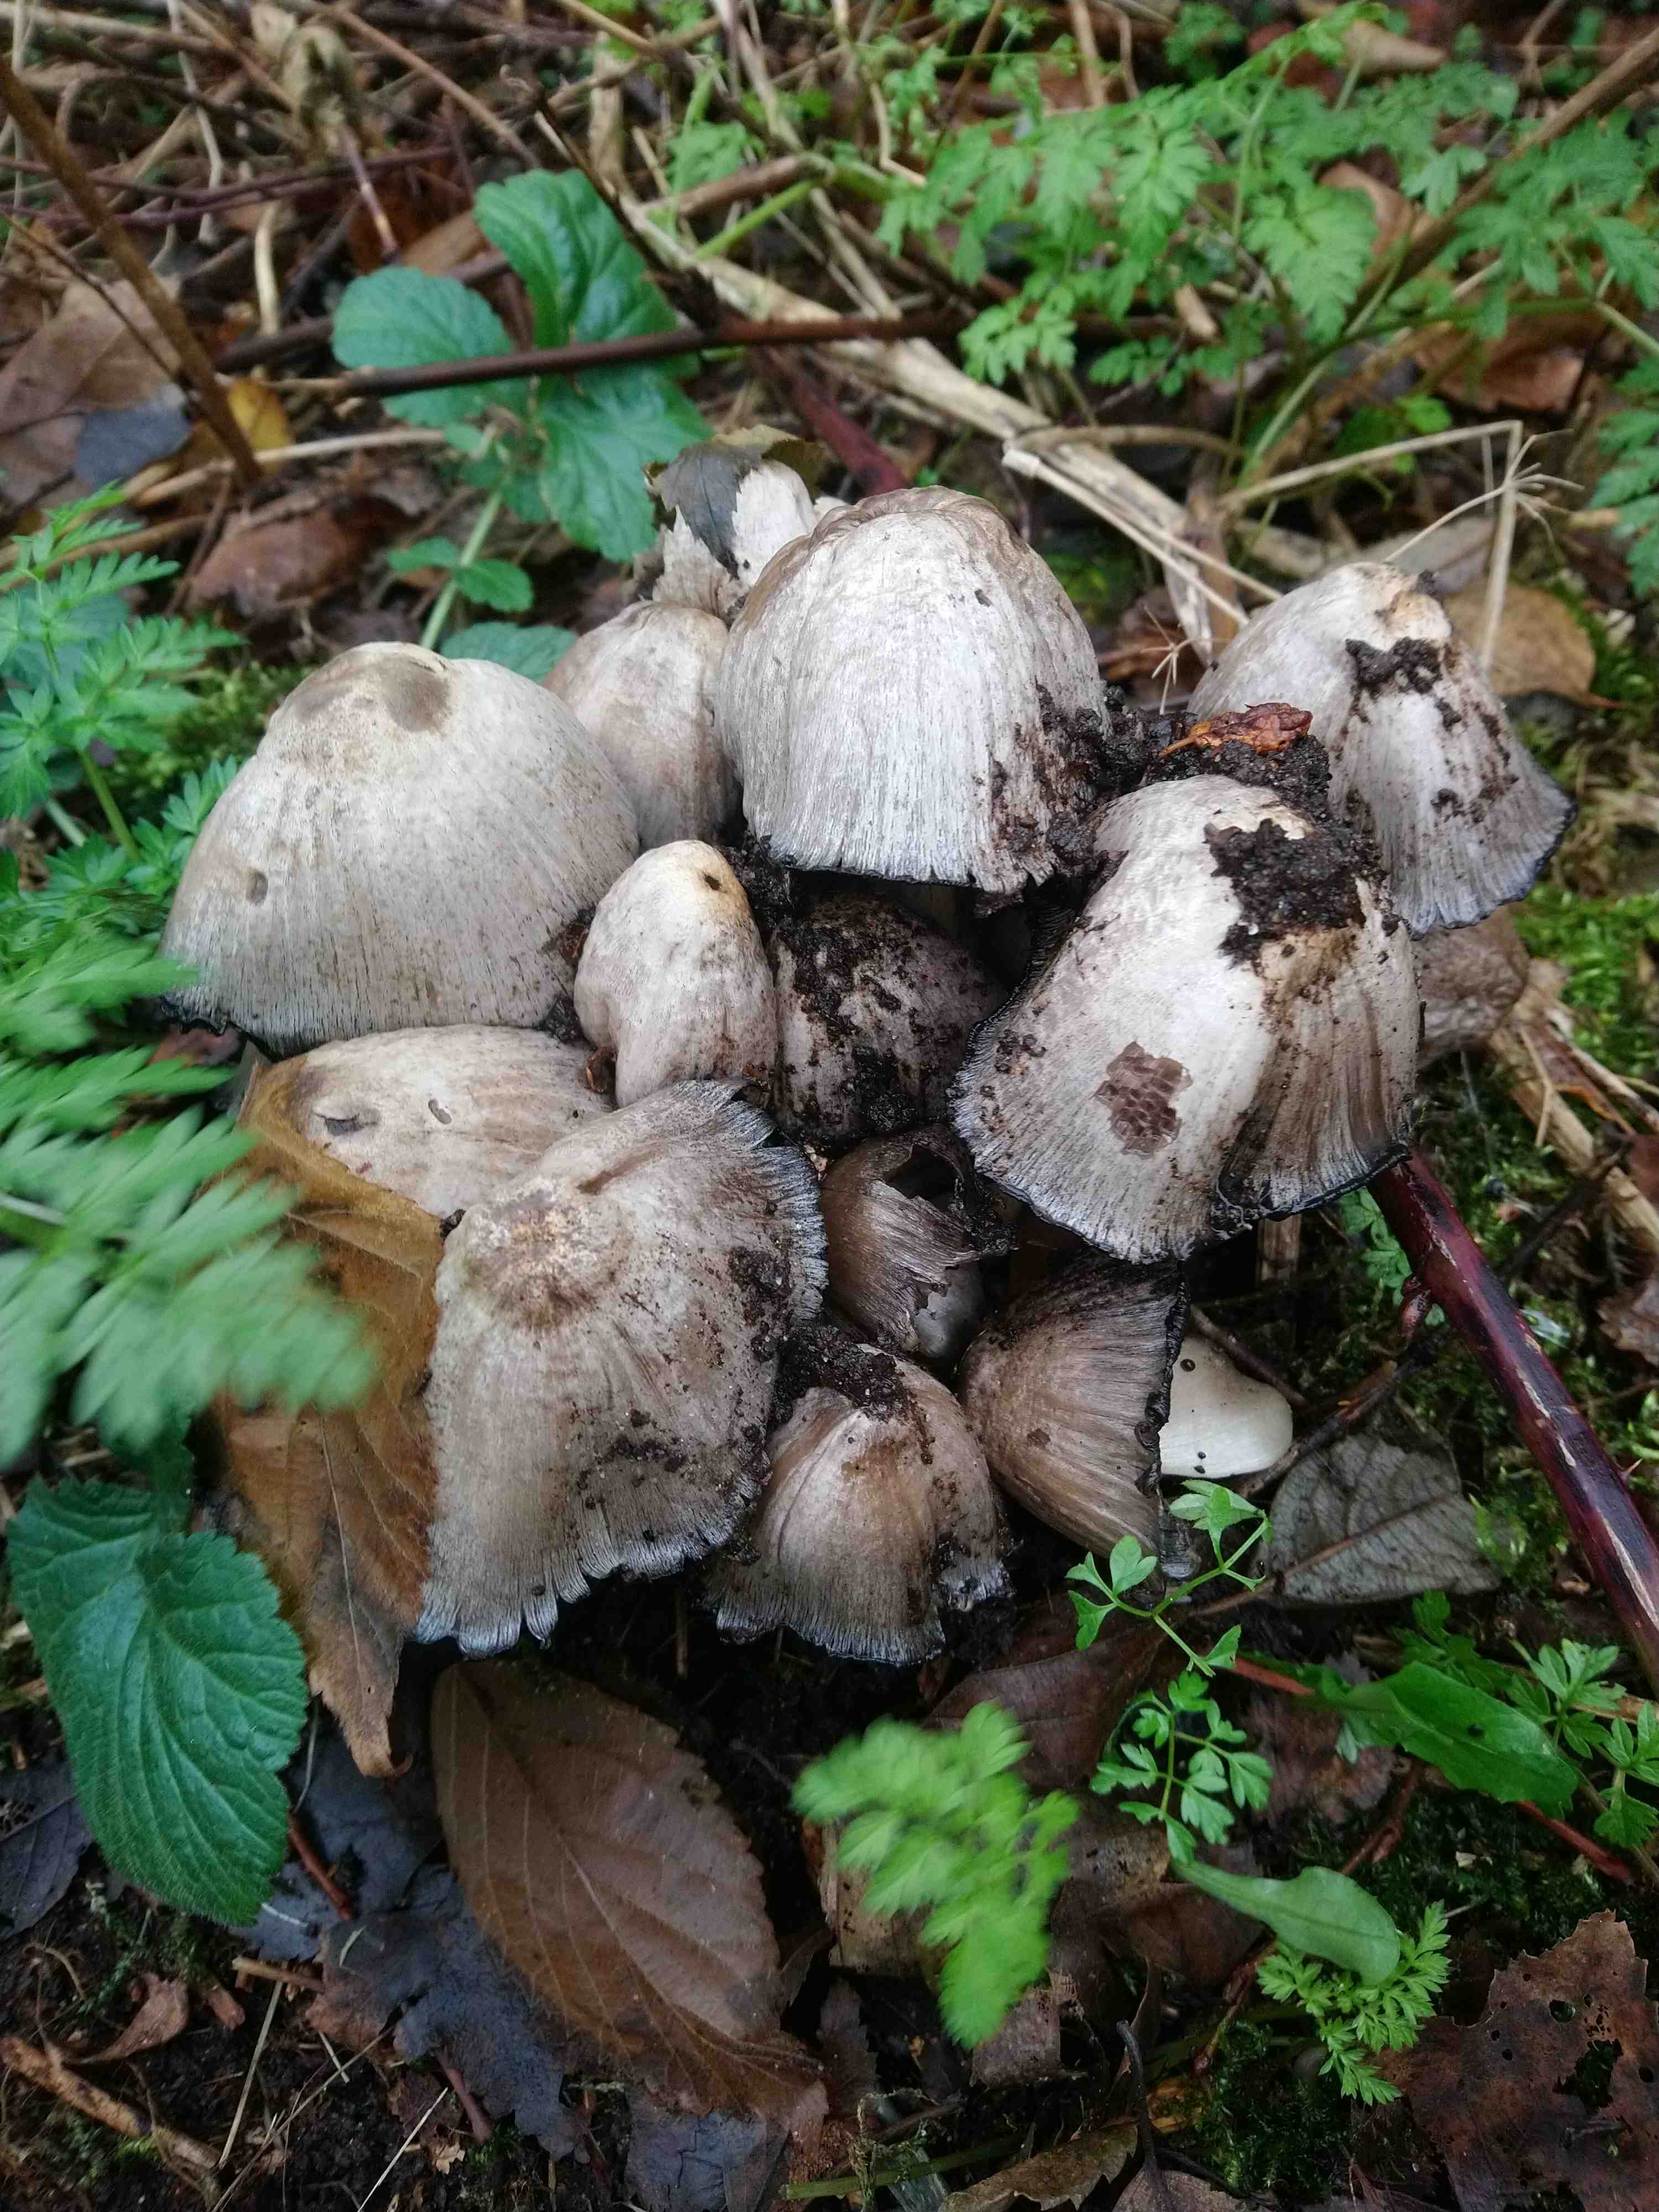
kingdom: Fungi
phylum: Basidiomycota
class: Agaricomycetes
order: Agaricales
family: Psathyrellaceae
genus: Coprinopsis
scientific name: Coprinopsis atramentaria
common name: almindelig blækhat
